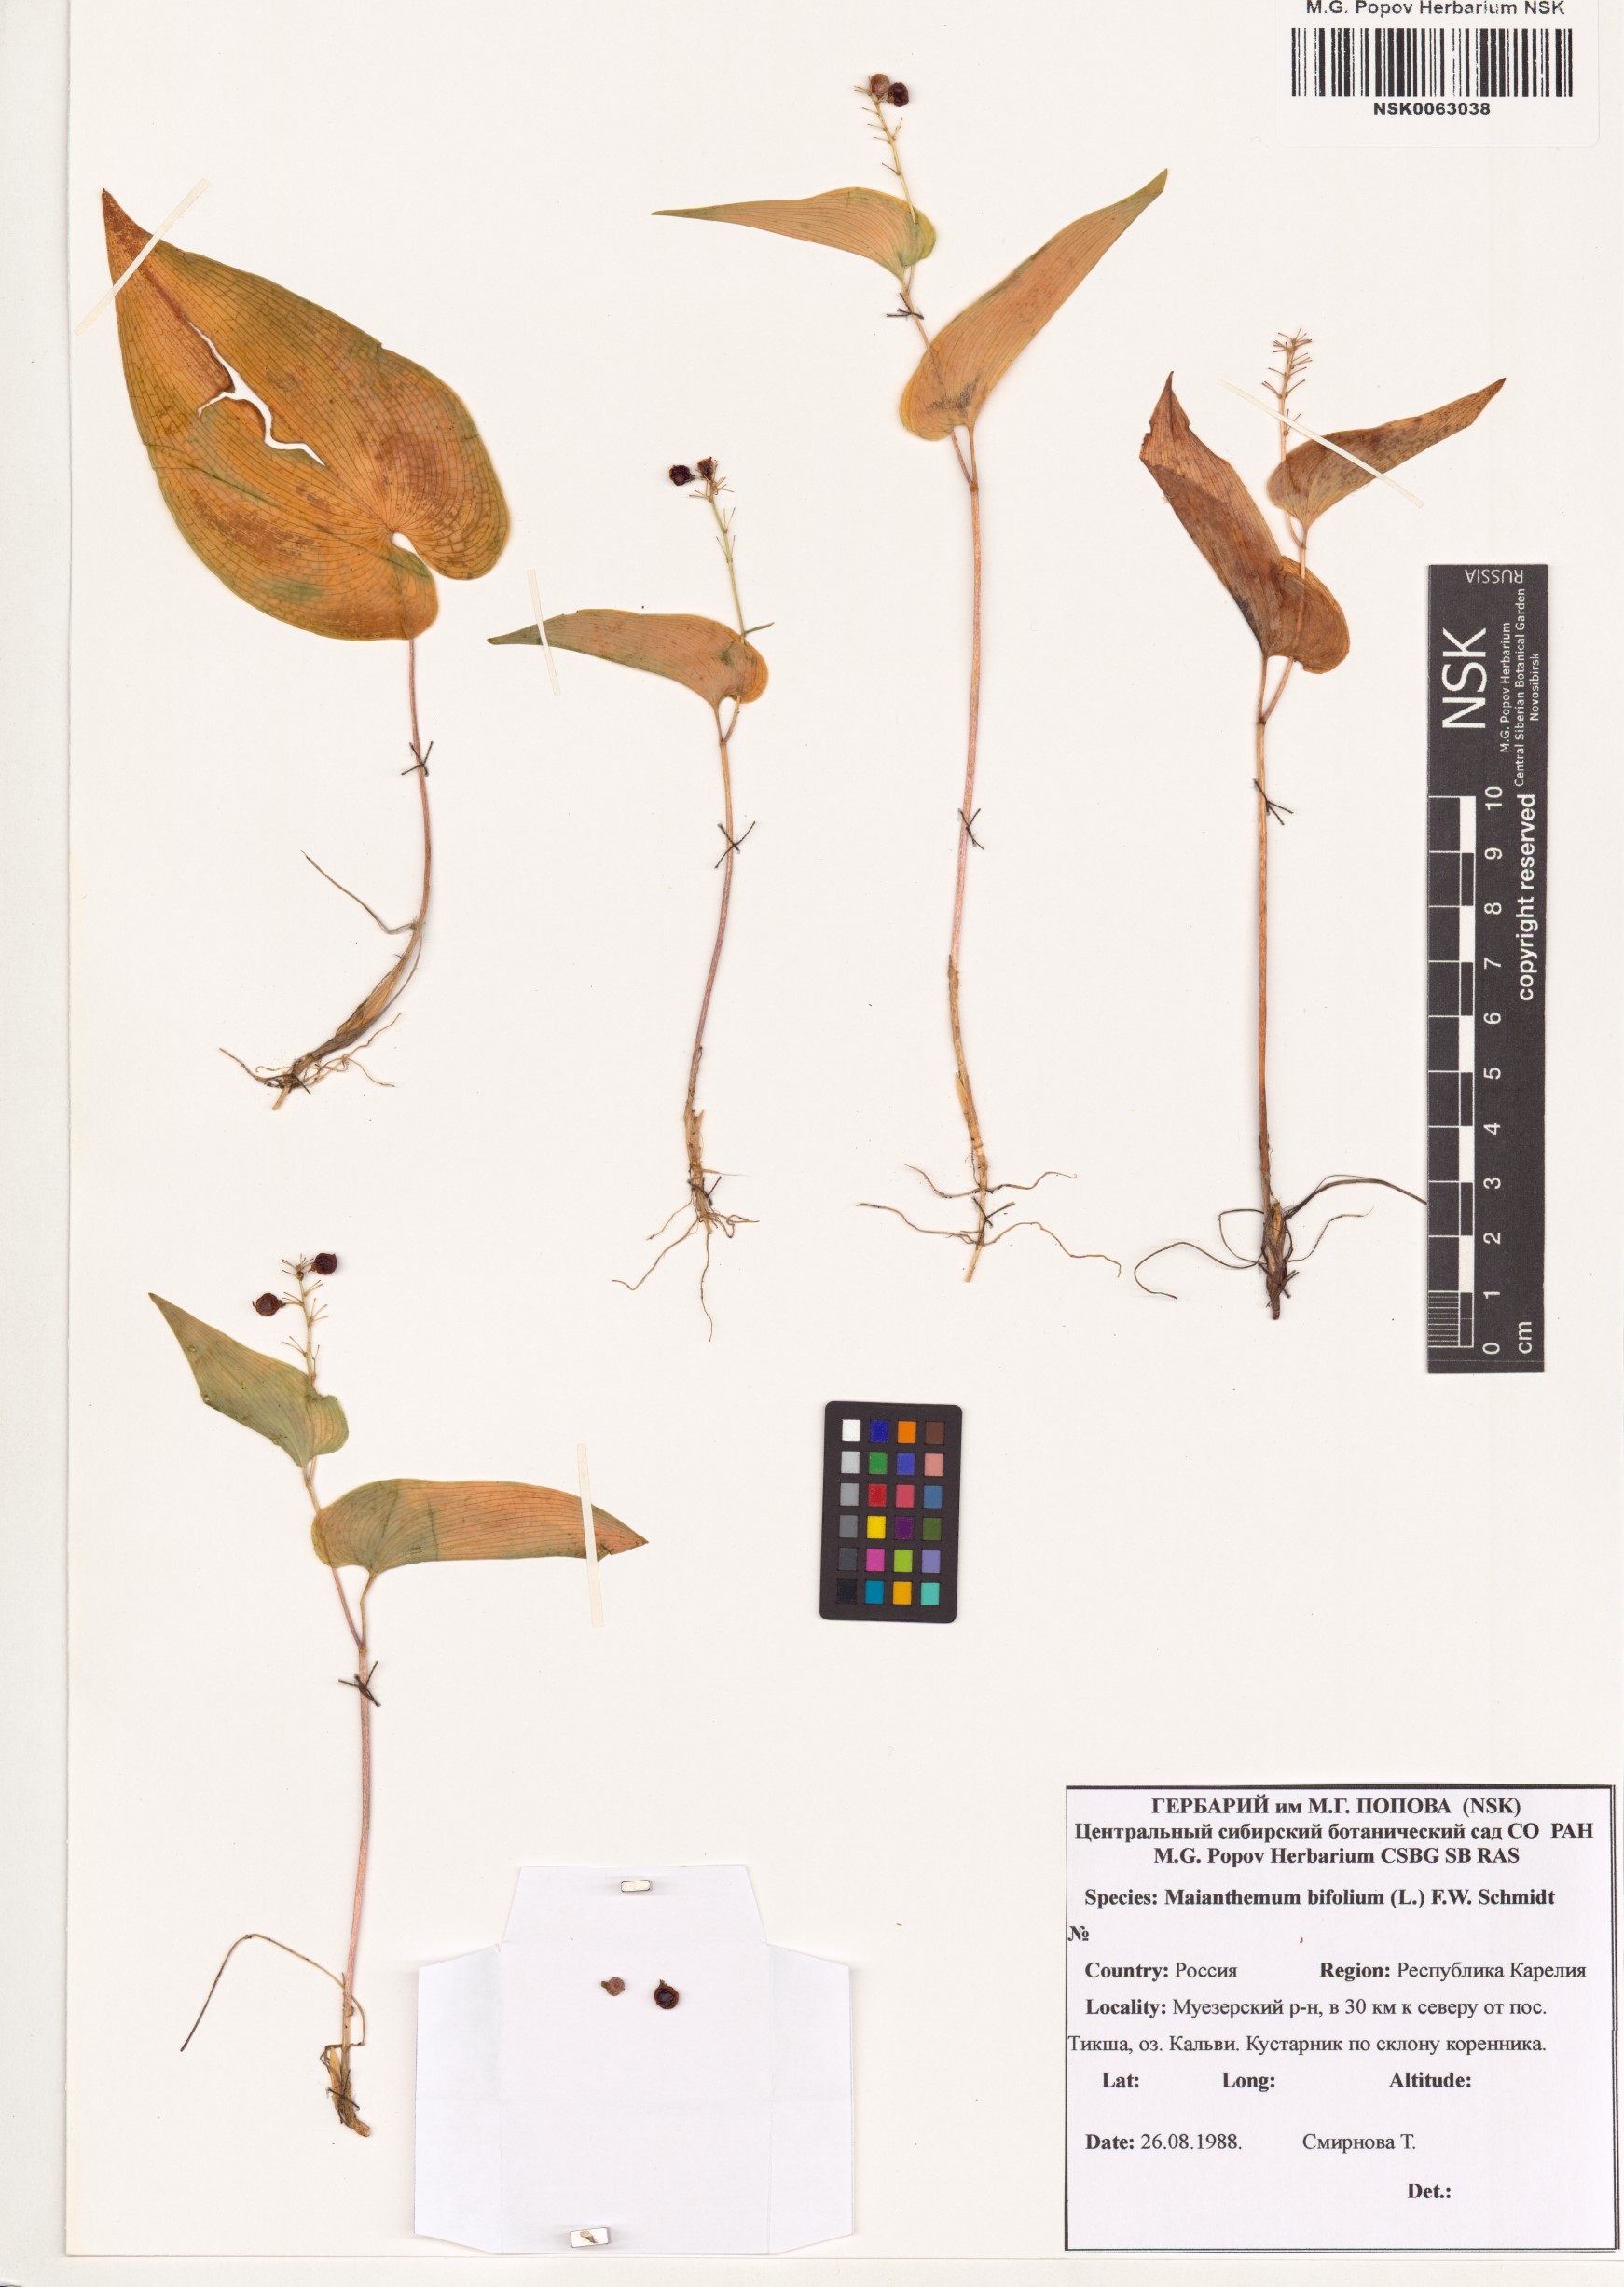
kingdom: Plantae
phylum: Tracheophyta
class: Liliopsida
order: Asparagales
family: Asparagaceae
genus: Maianthemum
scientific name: Maianthemum bifolium
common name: May lily
